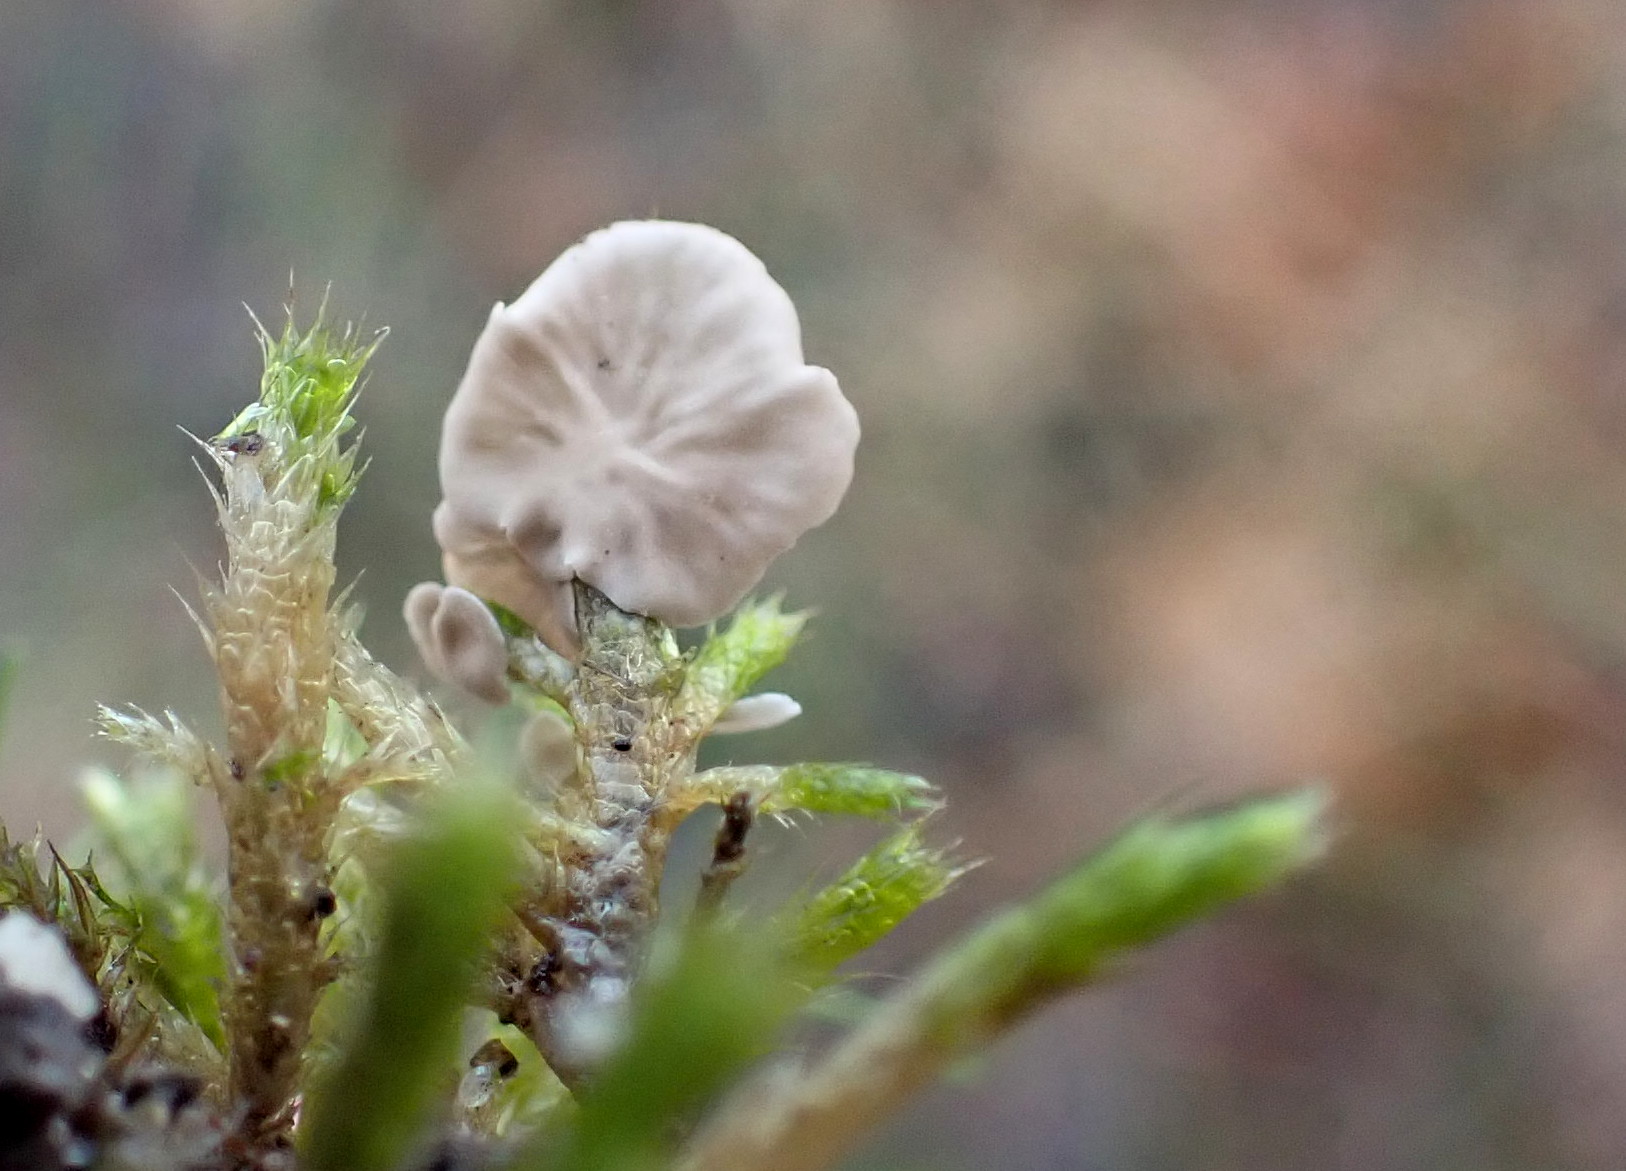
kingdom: Fungi
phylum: Basidiomycota
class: Agaricomycetes
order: Agaricales
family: Hygrophoraceae
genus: Arrhenia
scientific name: Arrhenia retiruga
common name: lille fontænehat
